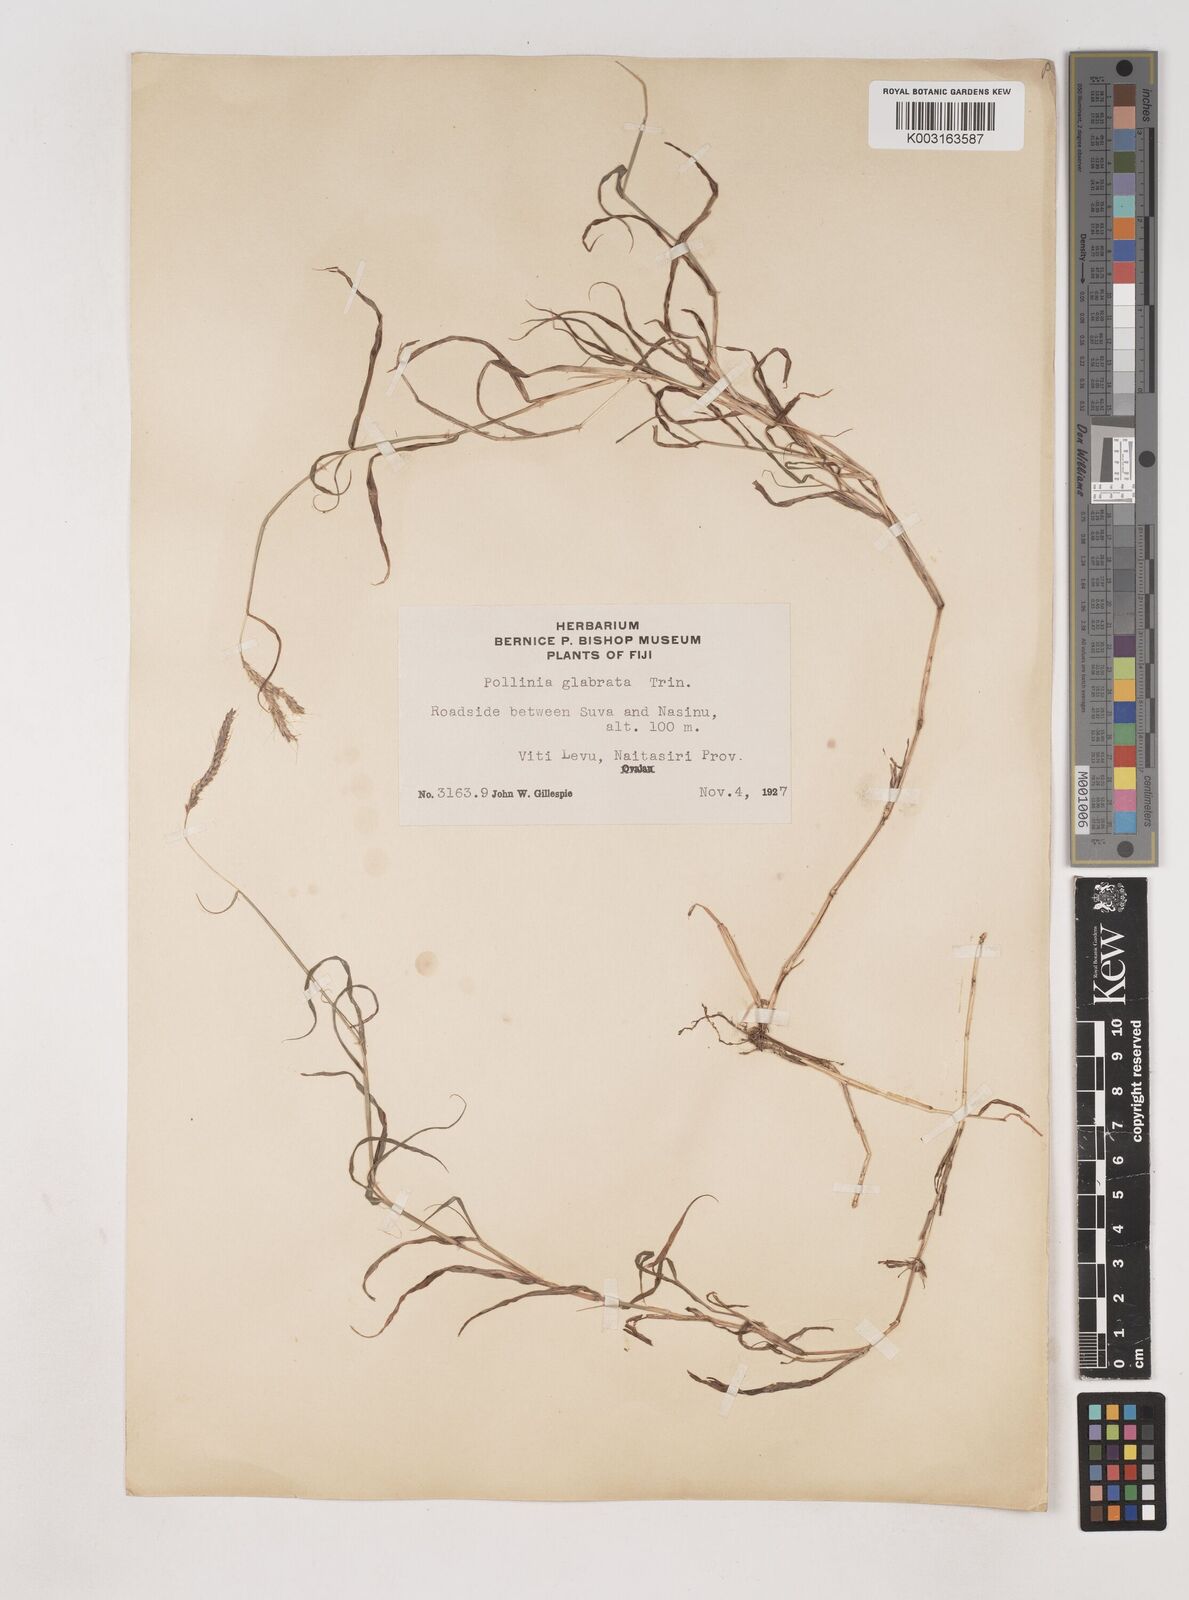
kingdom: Plantae
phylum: Tracheophyta
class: Liliopsida
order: Poales
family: Poaceae
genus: Dichanthium
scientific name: Dichanthium annulatum
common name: Kleberg's bluestem
